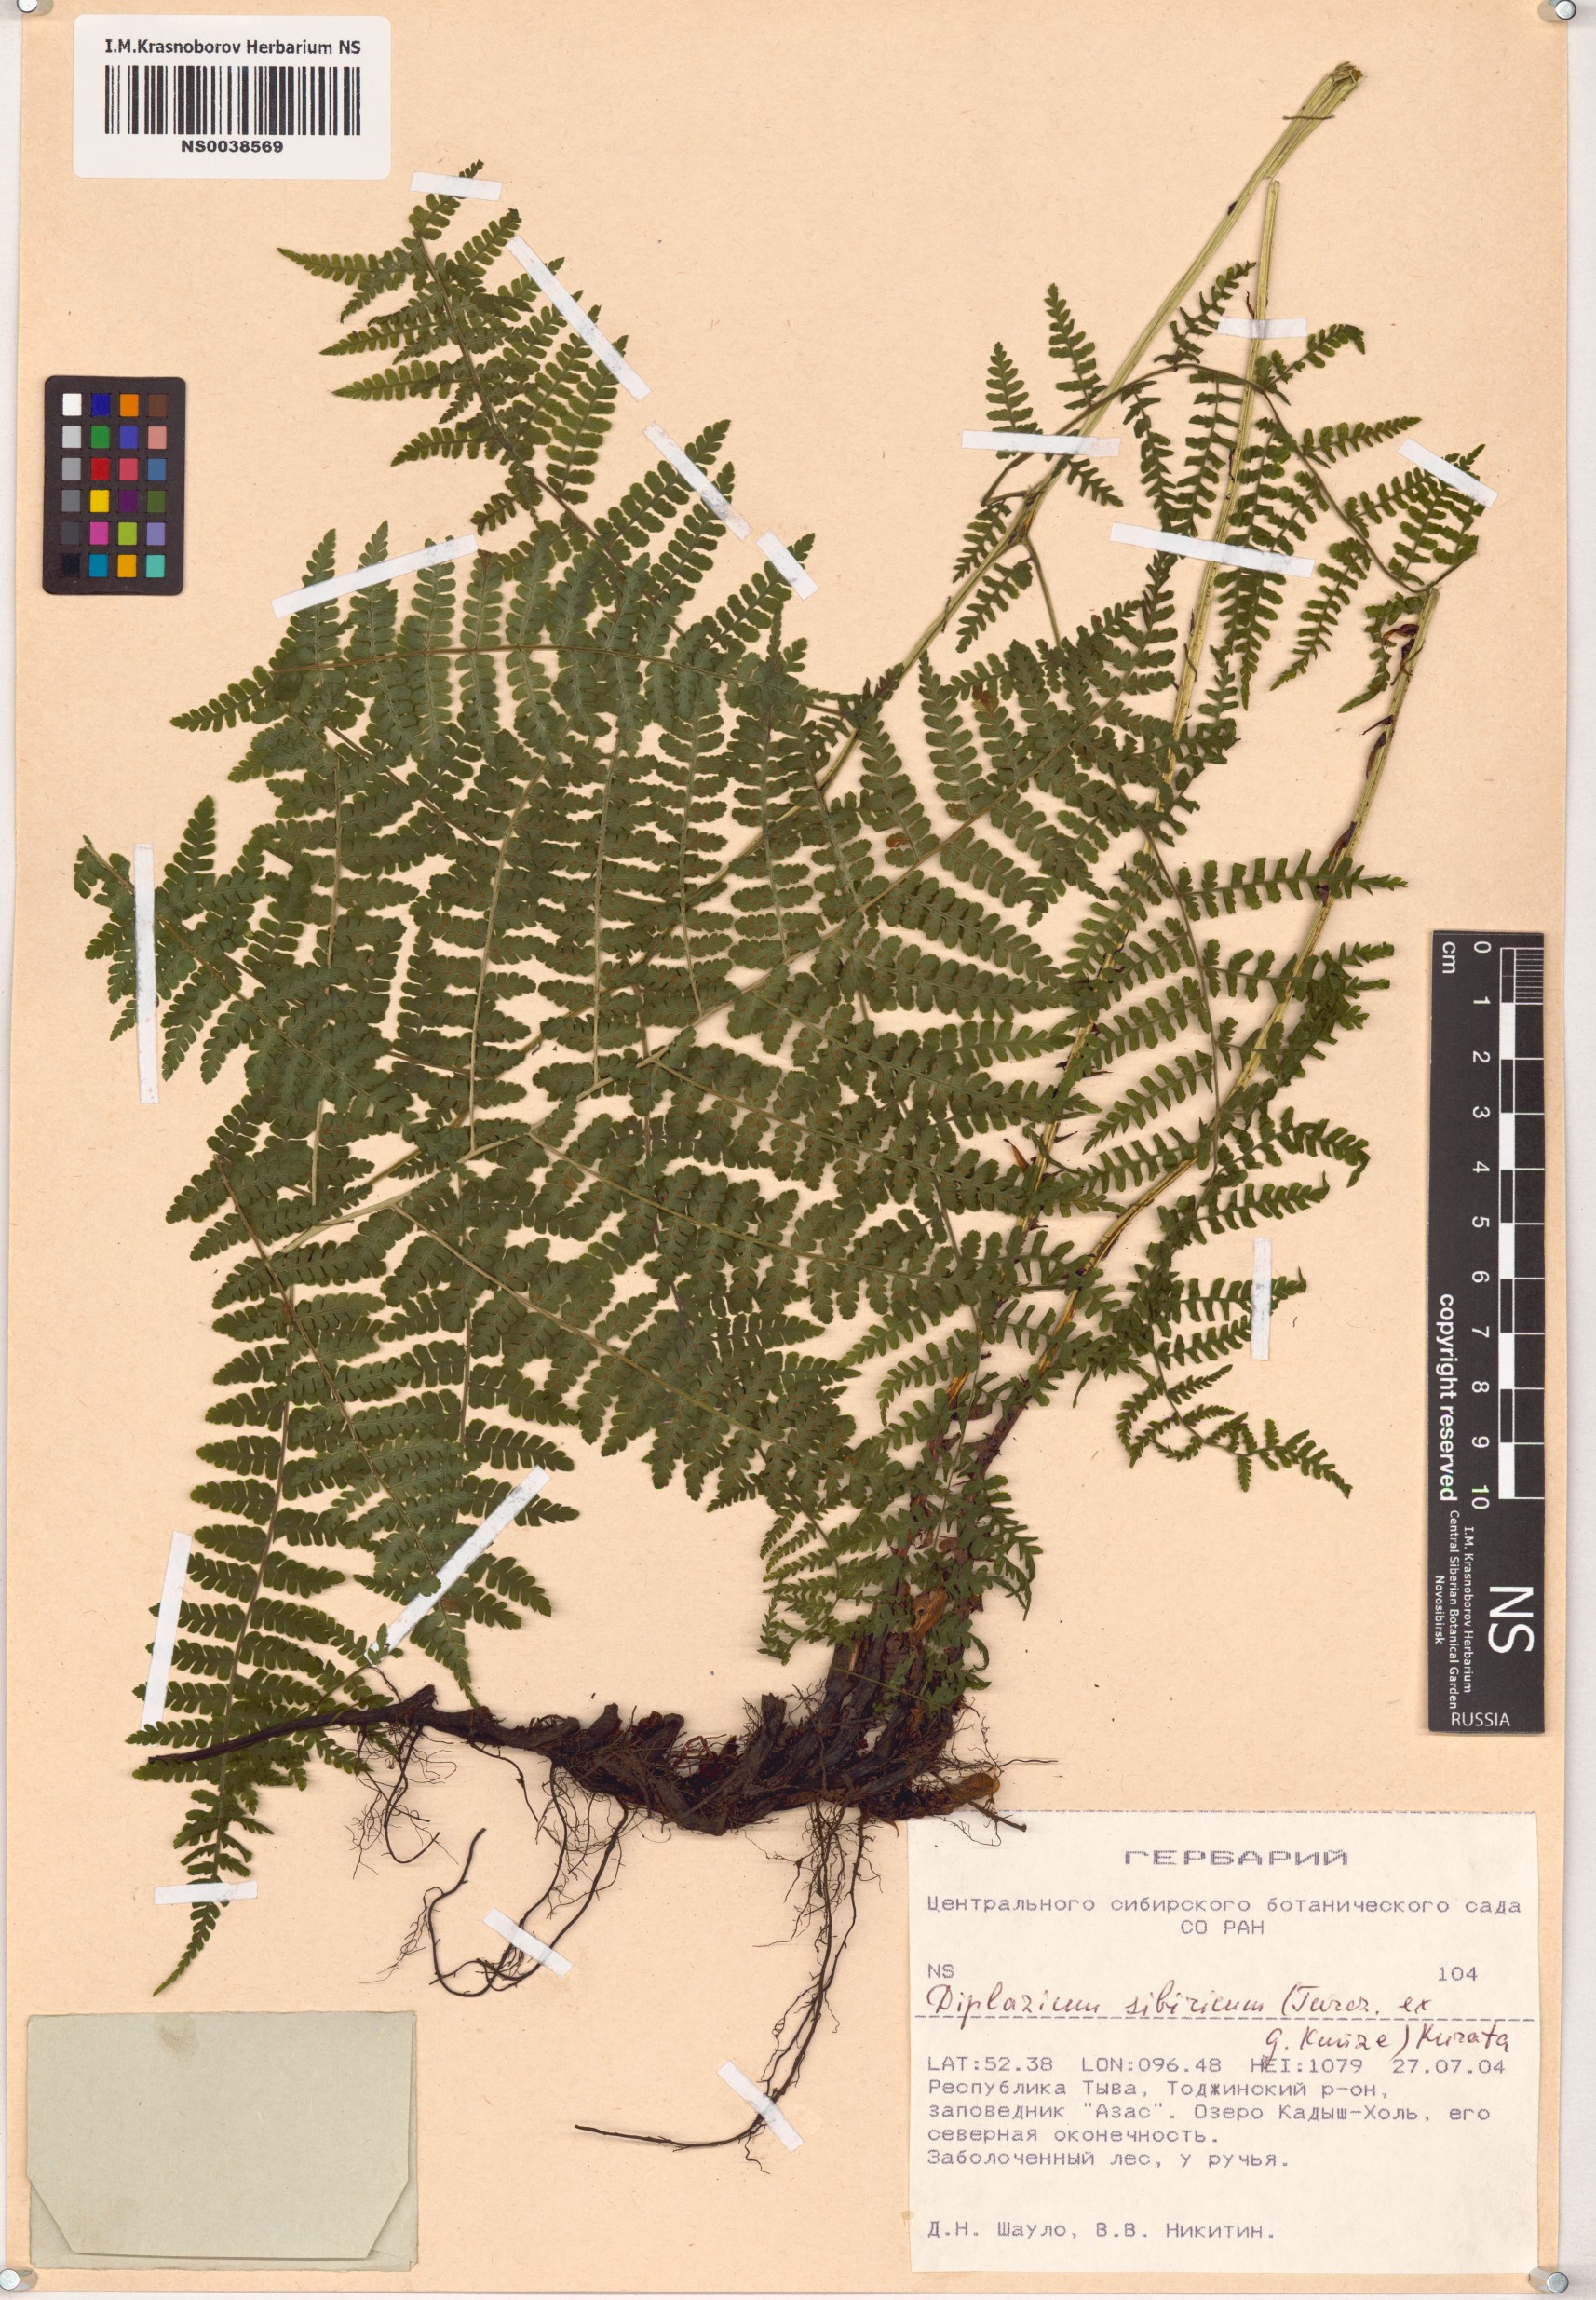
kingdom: Plantae
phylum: Tracheophyta
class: Polypodiopsida
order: Polypodiales
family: Athyriaceae
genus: Diplazium
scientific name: Diplazium sibiricum
